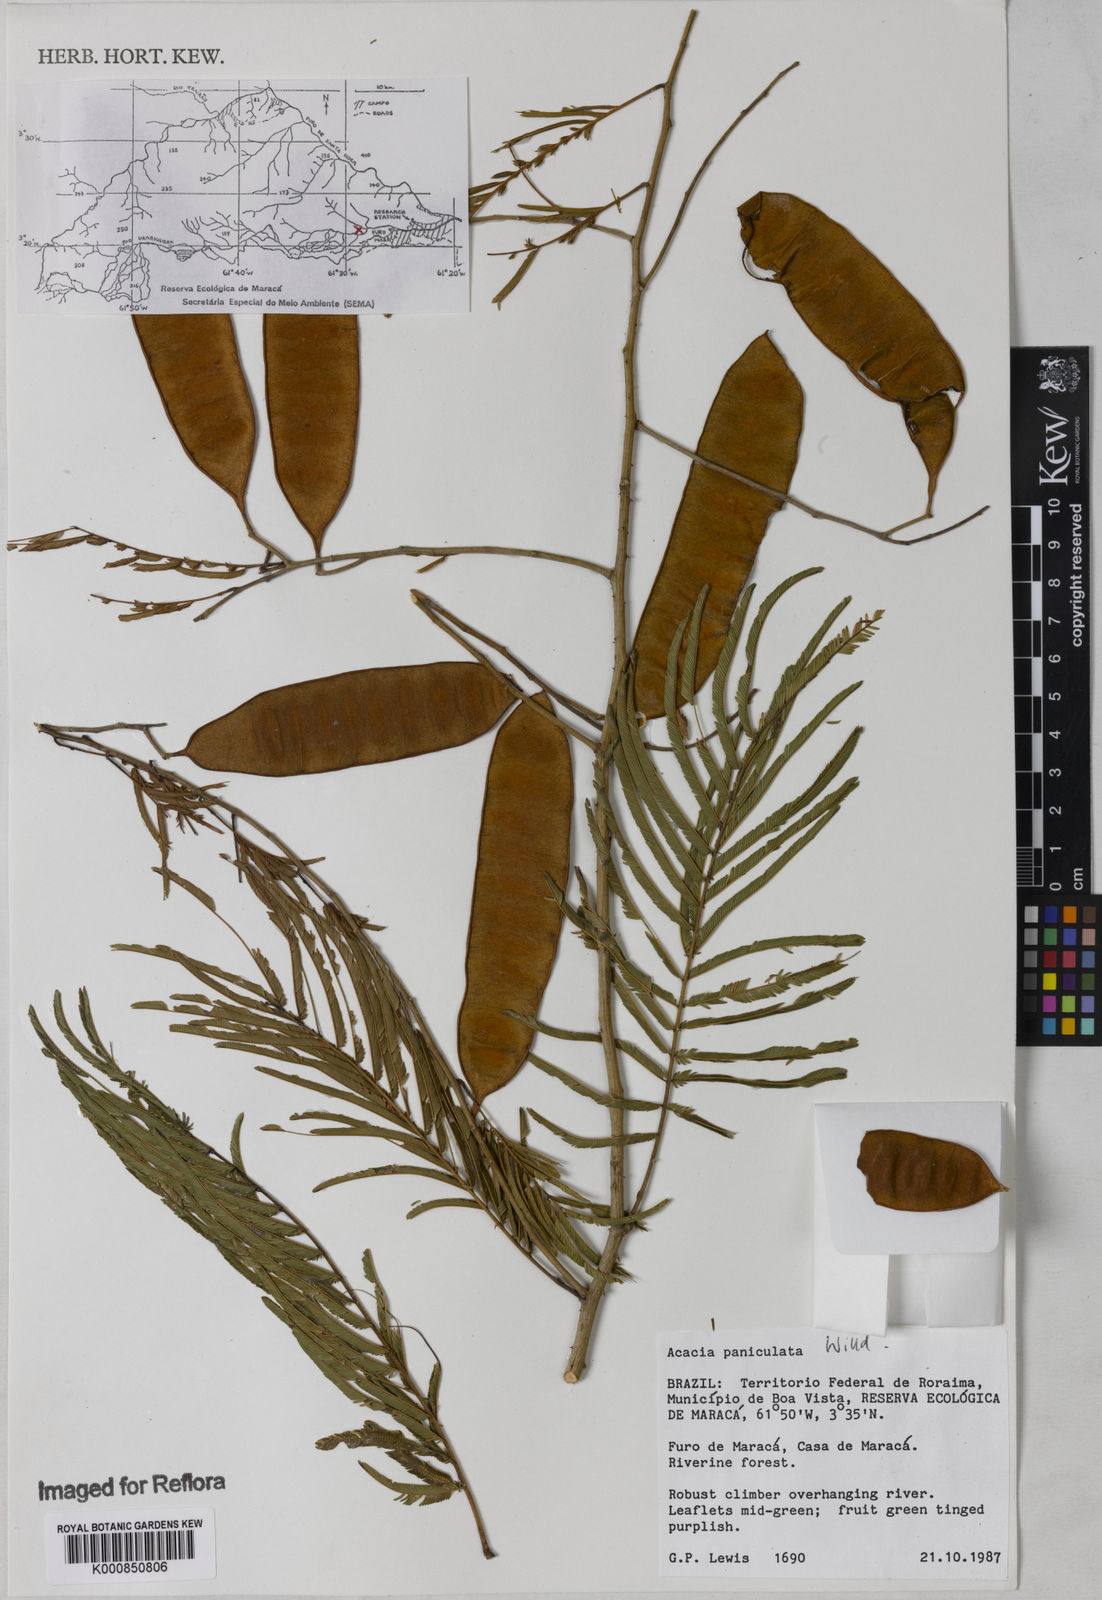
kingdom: Plantae
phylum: Tracheophyta
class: Magnoliopsida
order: Fabales
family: Fabaceae
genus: Senegalia
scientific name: Senegalia tenuifolia
